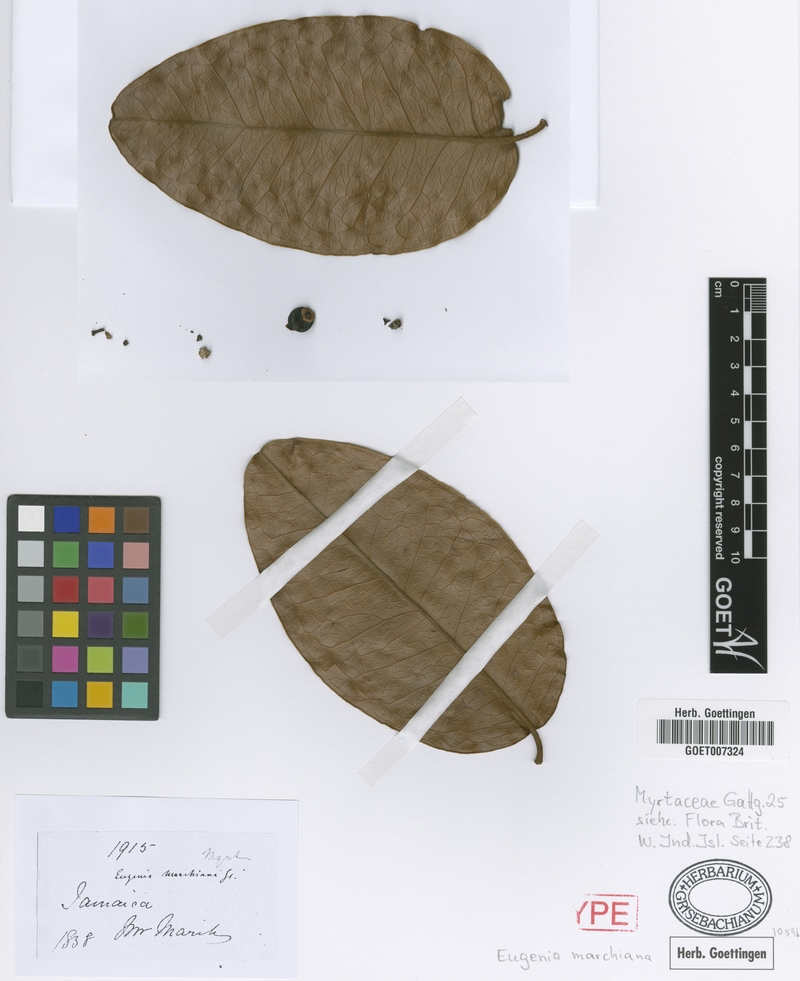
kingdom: Plantae
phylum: Tracheophyta
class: Magnoliopsida
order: Myrtales
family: Myrtaceae
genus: Eugenia
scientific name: Eugenia marchiana
